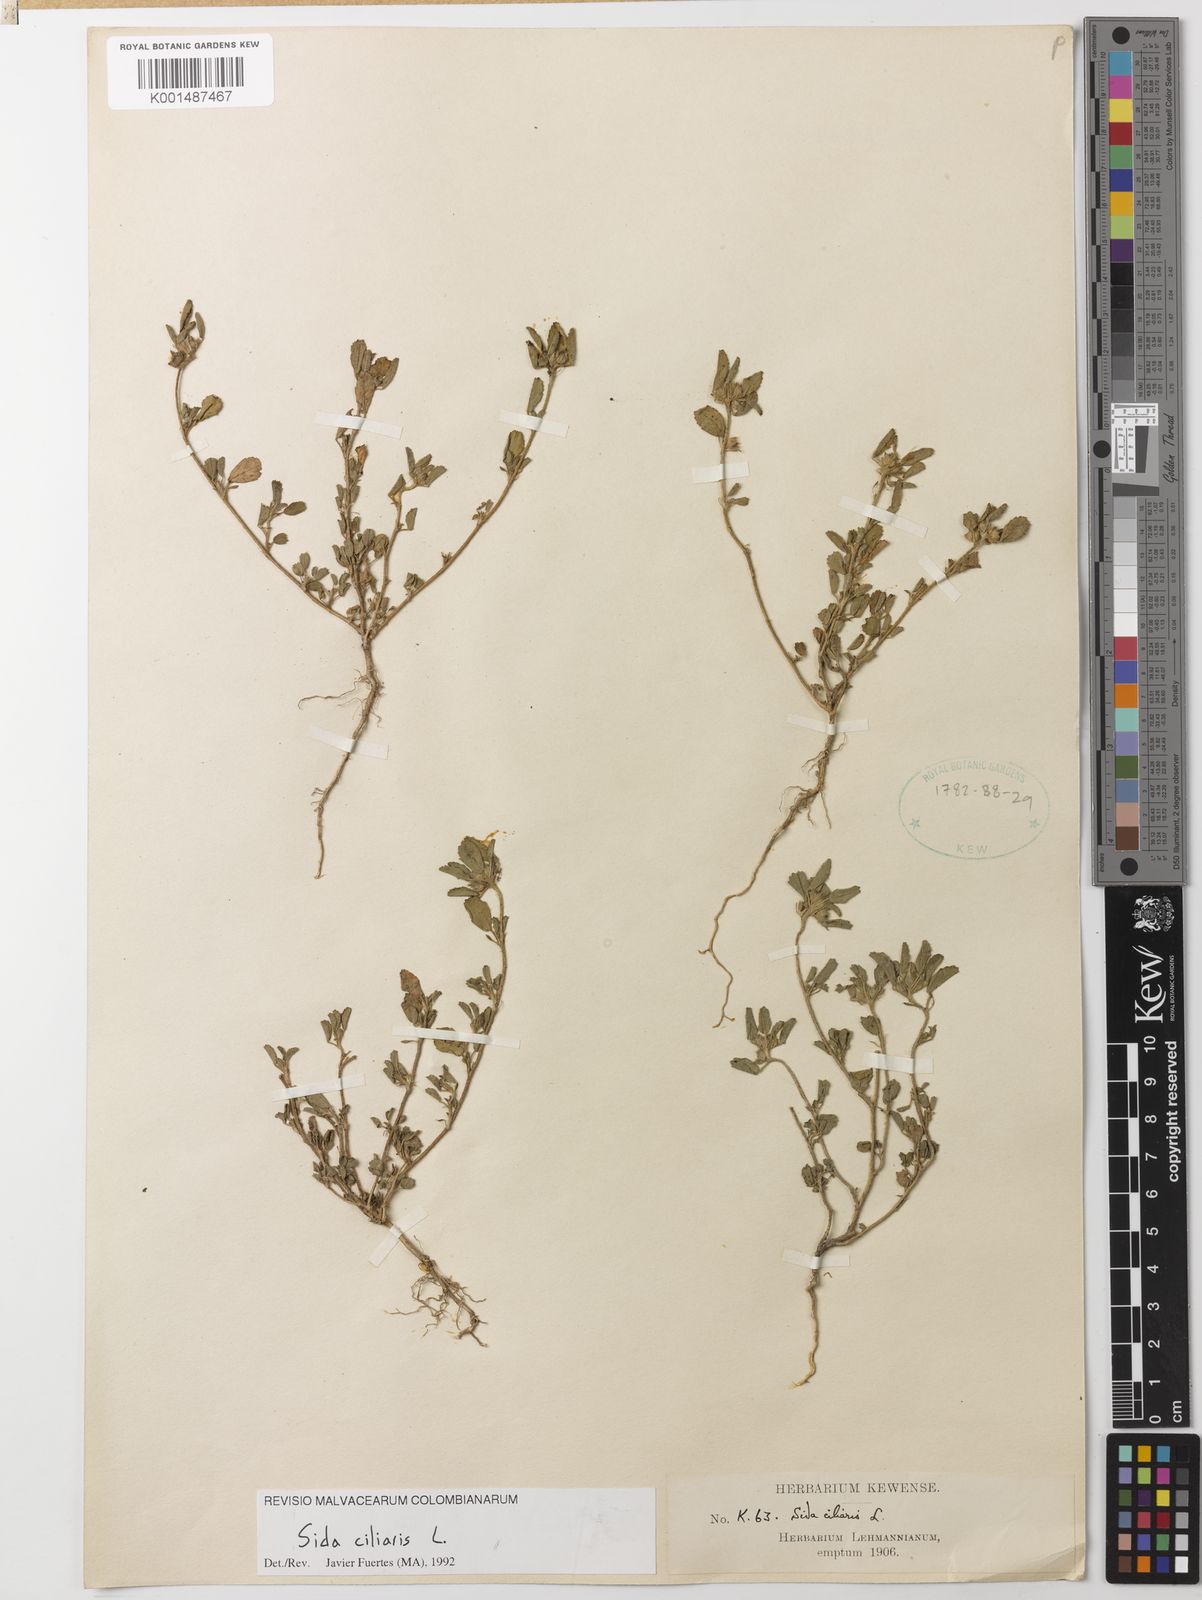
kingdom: Plantae
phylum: Tracheophyta
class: Magnoliopsida
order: Malvales
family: Malvaceae
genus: Sida
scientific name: Sida ciliaris
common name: Bracted fanpetals
